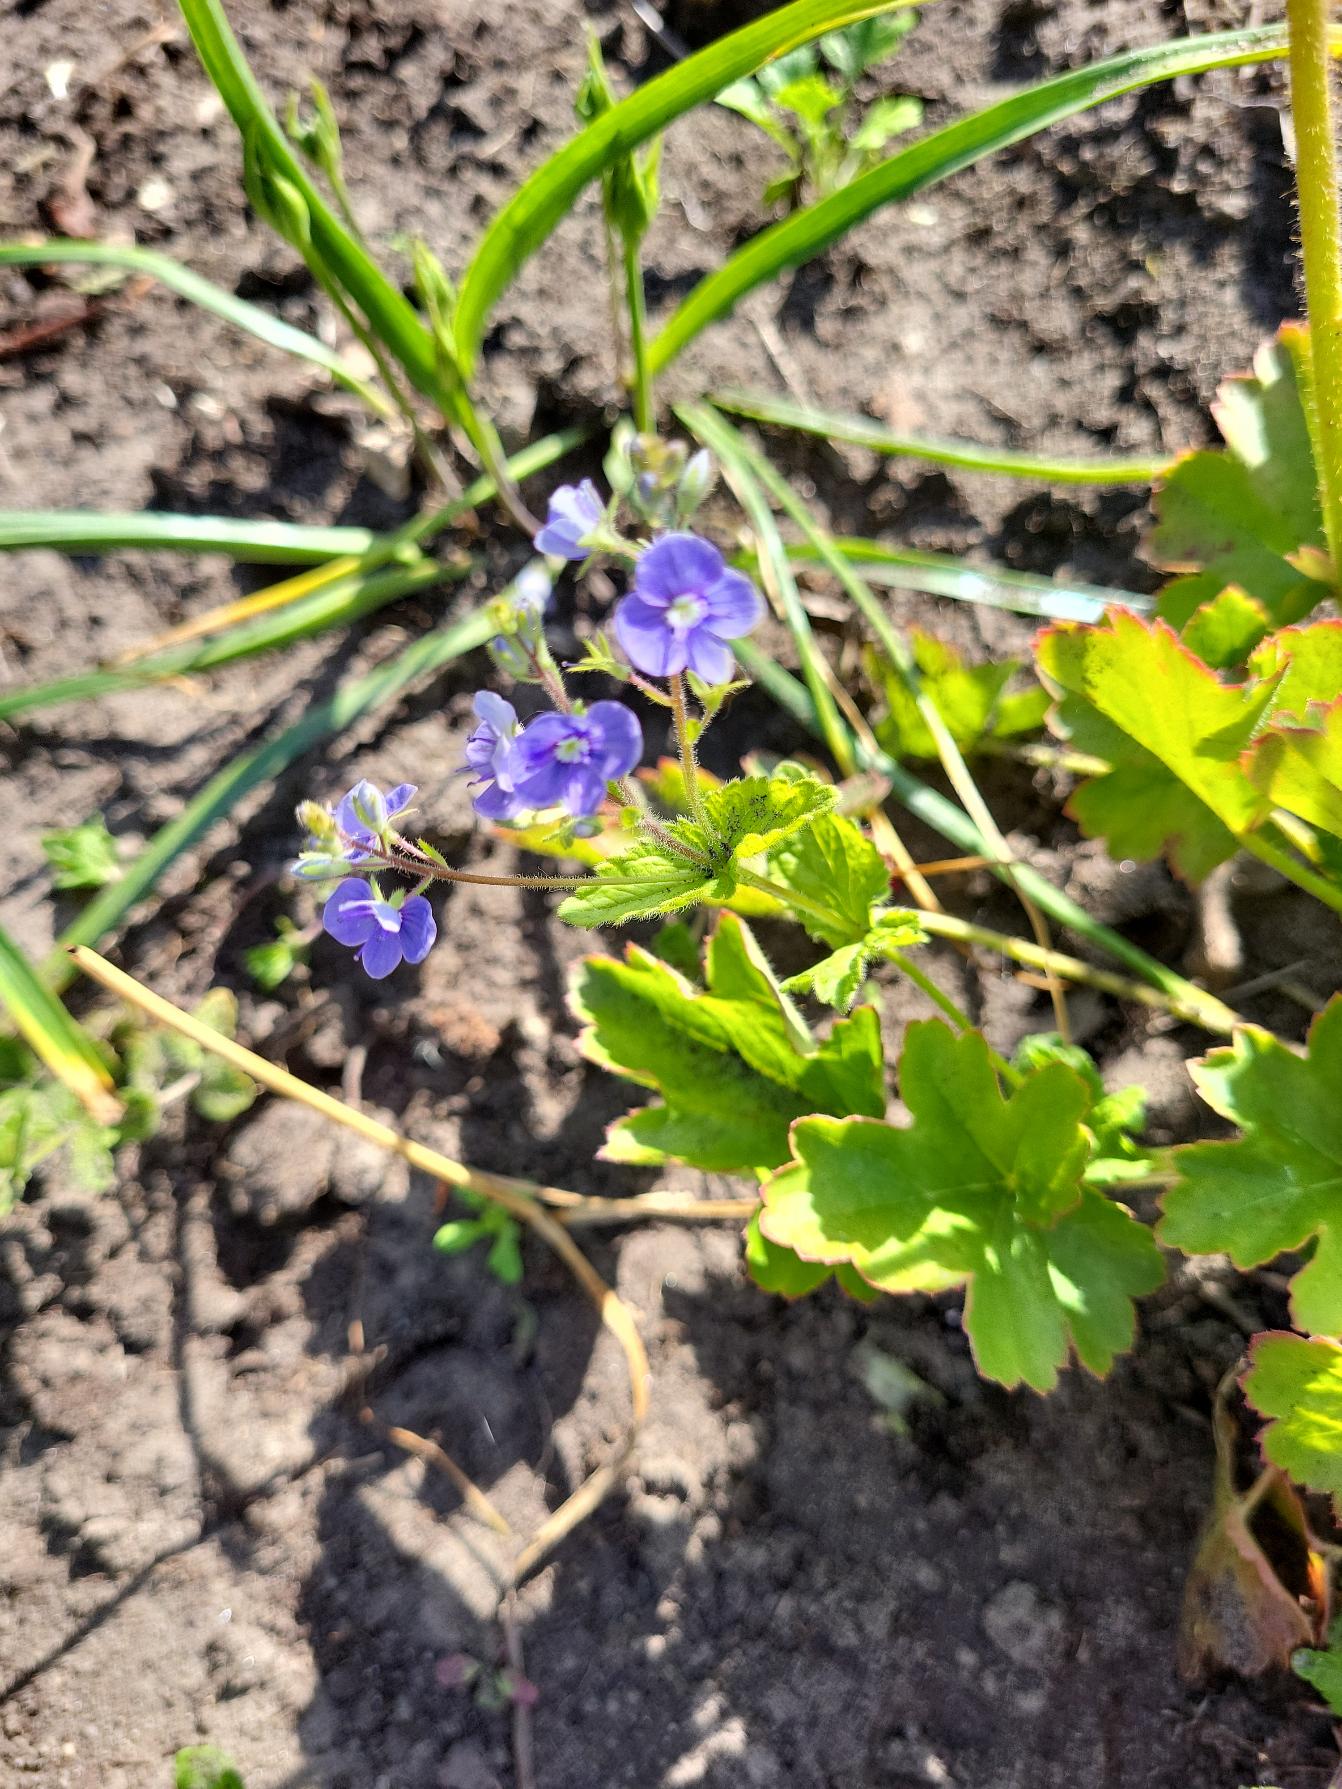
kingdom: Plantae
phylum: Tracheophyta
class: Magnoliopsida
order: Lamiales
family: Plantaginaceae
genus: Veronica
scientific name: Veronica chamaedrys
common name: Tveskægget ærenpris
